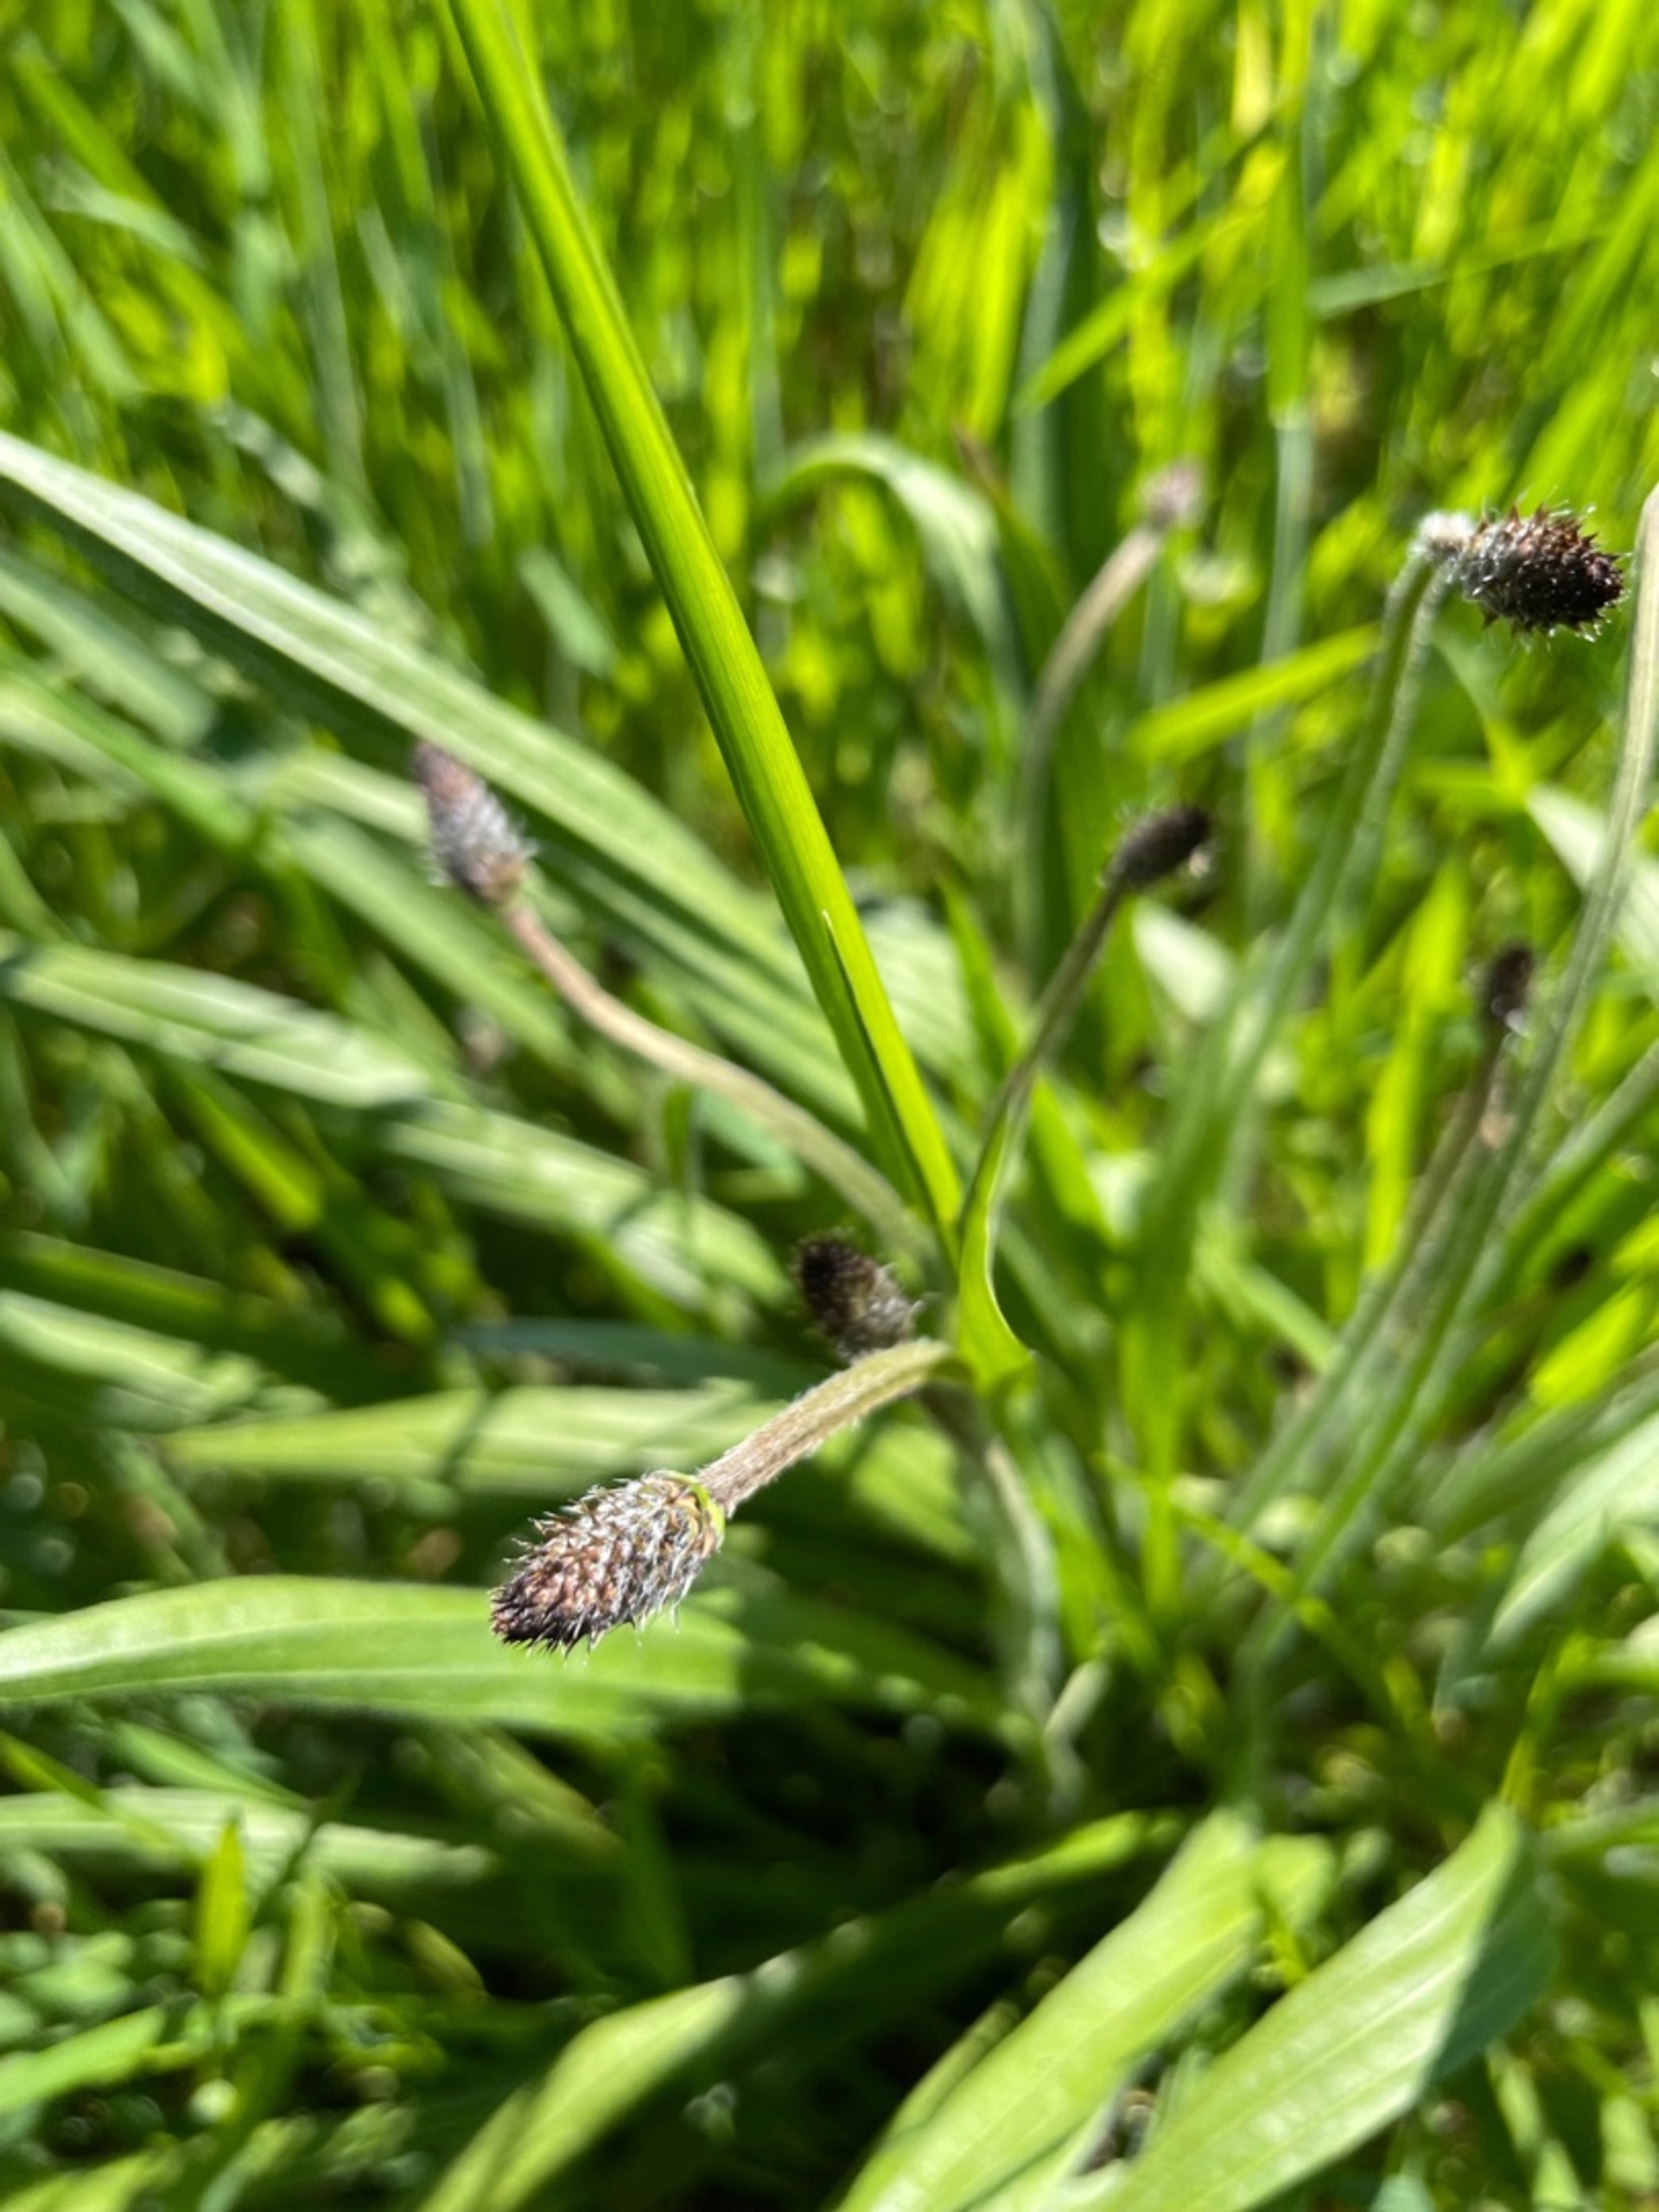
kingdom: Plantae
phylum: Tracheophyta
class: Magnoliopsida
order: Lamiales
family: Plantaginaceae
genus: Plantago
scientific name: Plantago lanceolata
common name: Lancet-vejbred
